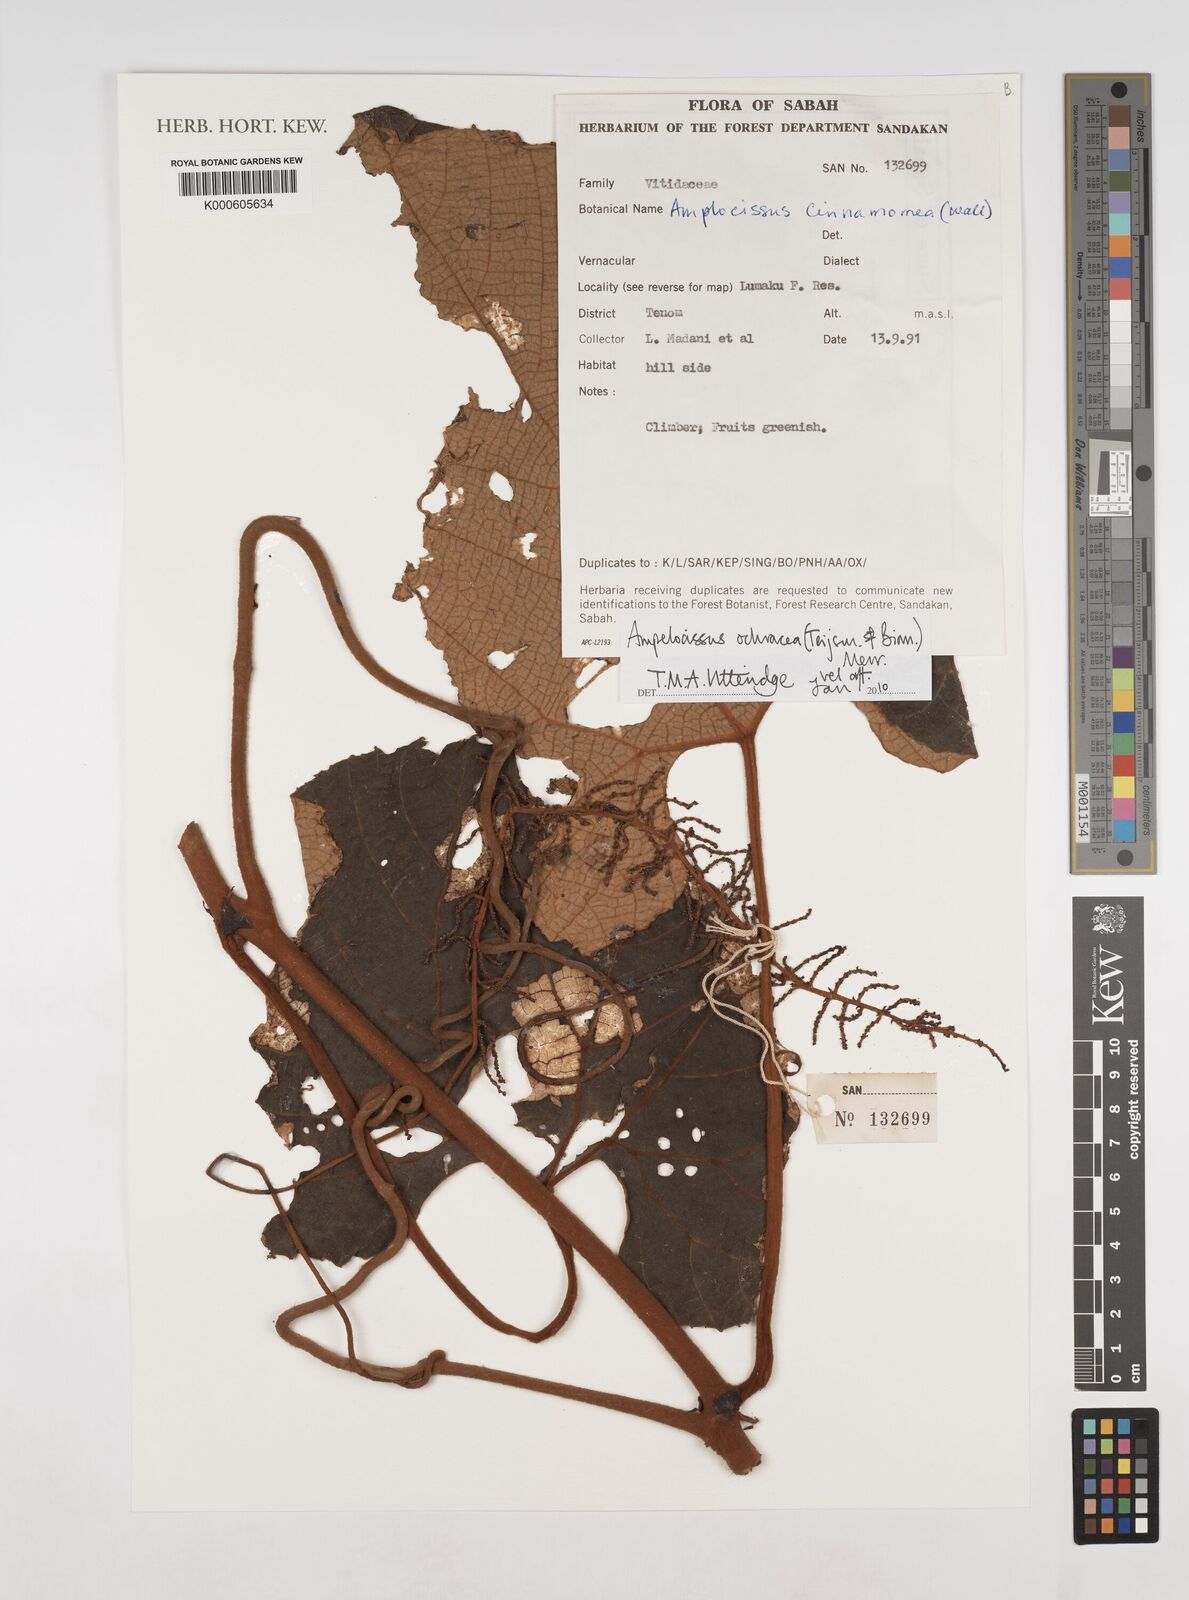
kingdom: Plantae
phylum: Tracheophyta
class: Magnoliopsida
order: Vitales
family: Vitaceae
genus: Ampelocissus
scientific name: Ampelocissus ochracea
